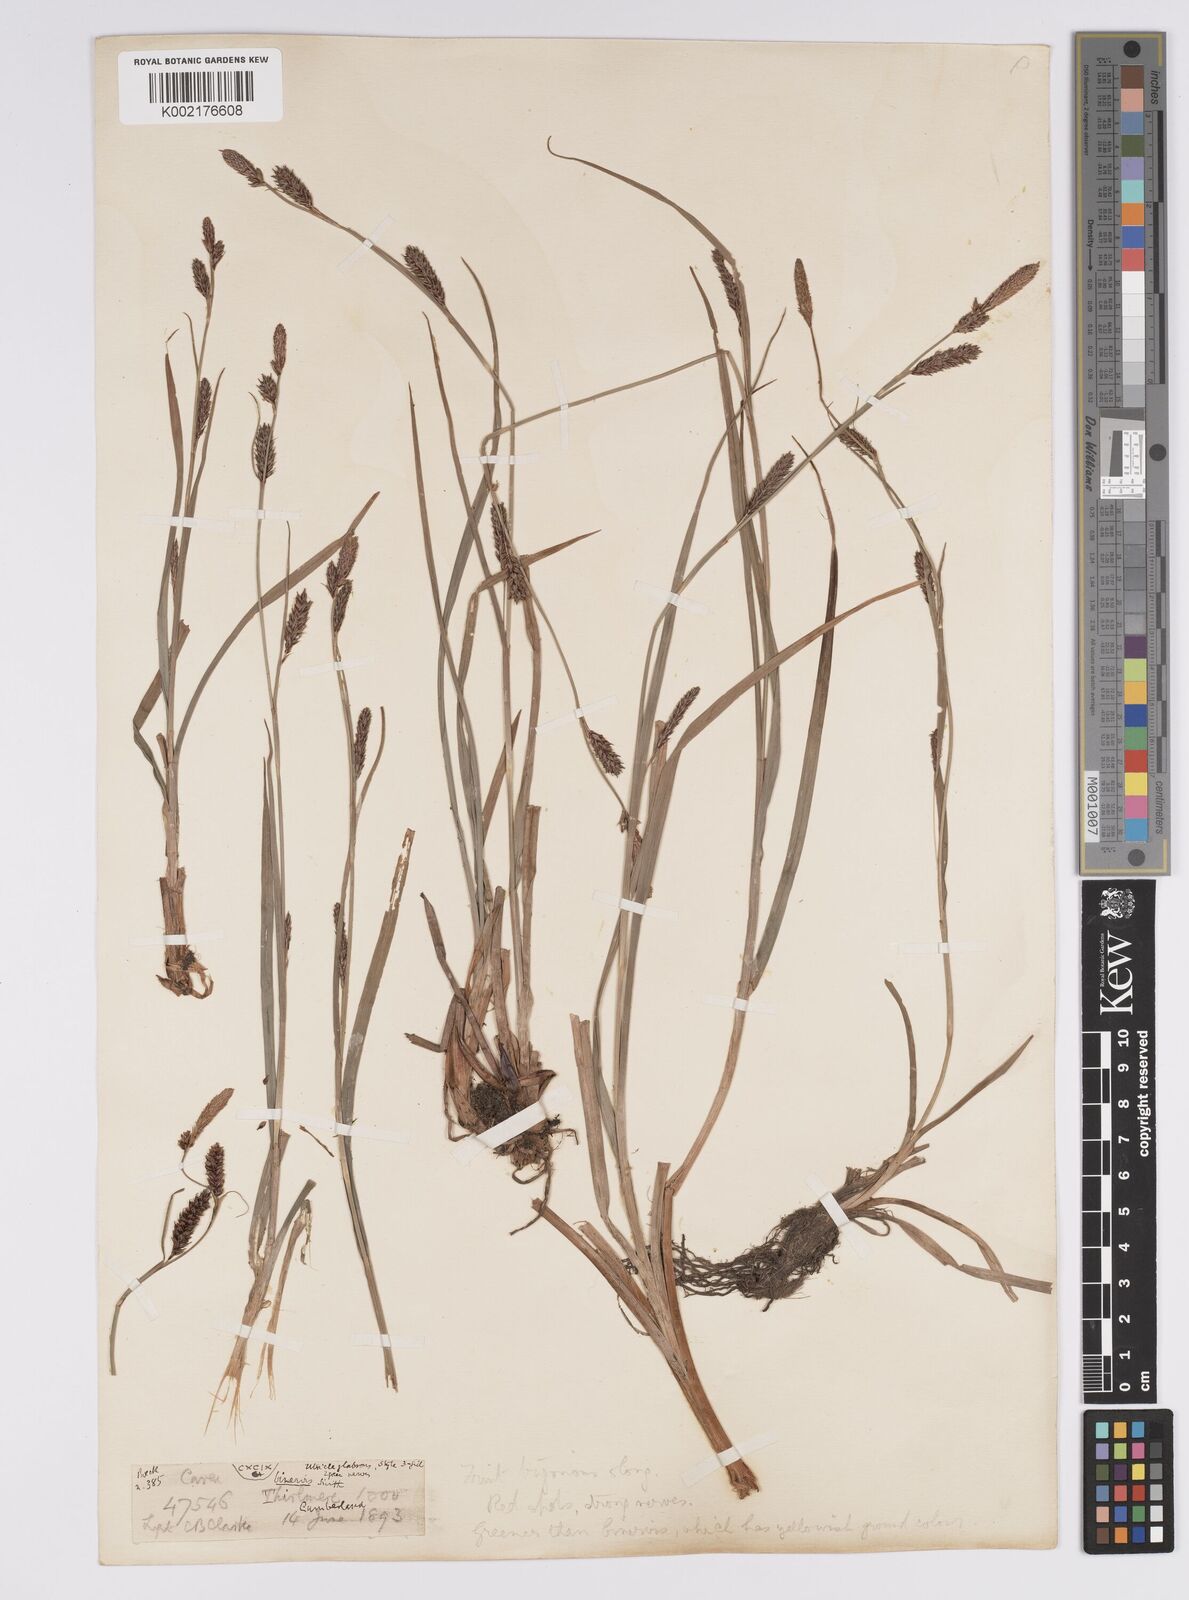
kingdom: Plantae
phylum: Tracheophyta
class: Liliopsida
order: Poales
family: Cyperaceae
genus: Carex
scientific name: Carex binervis
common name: Green-ribbed sedge
